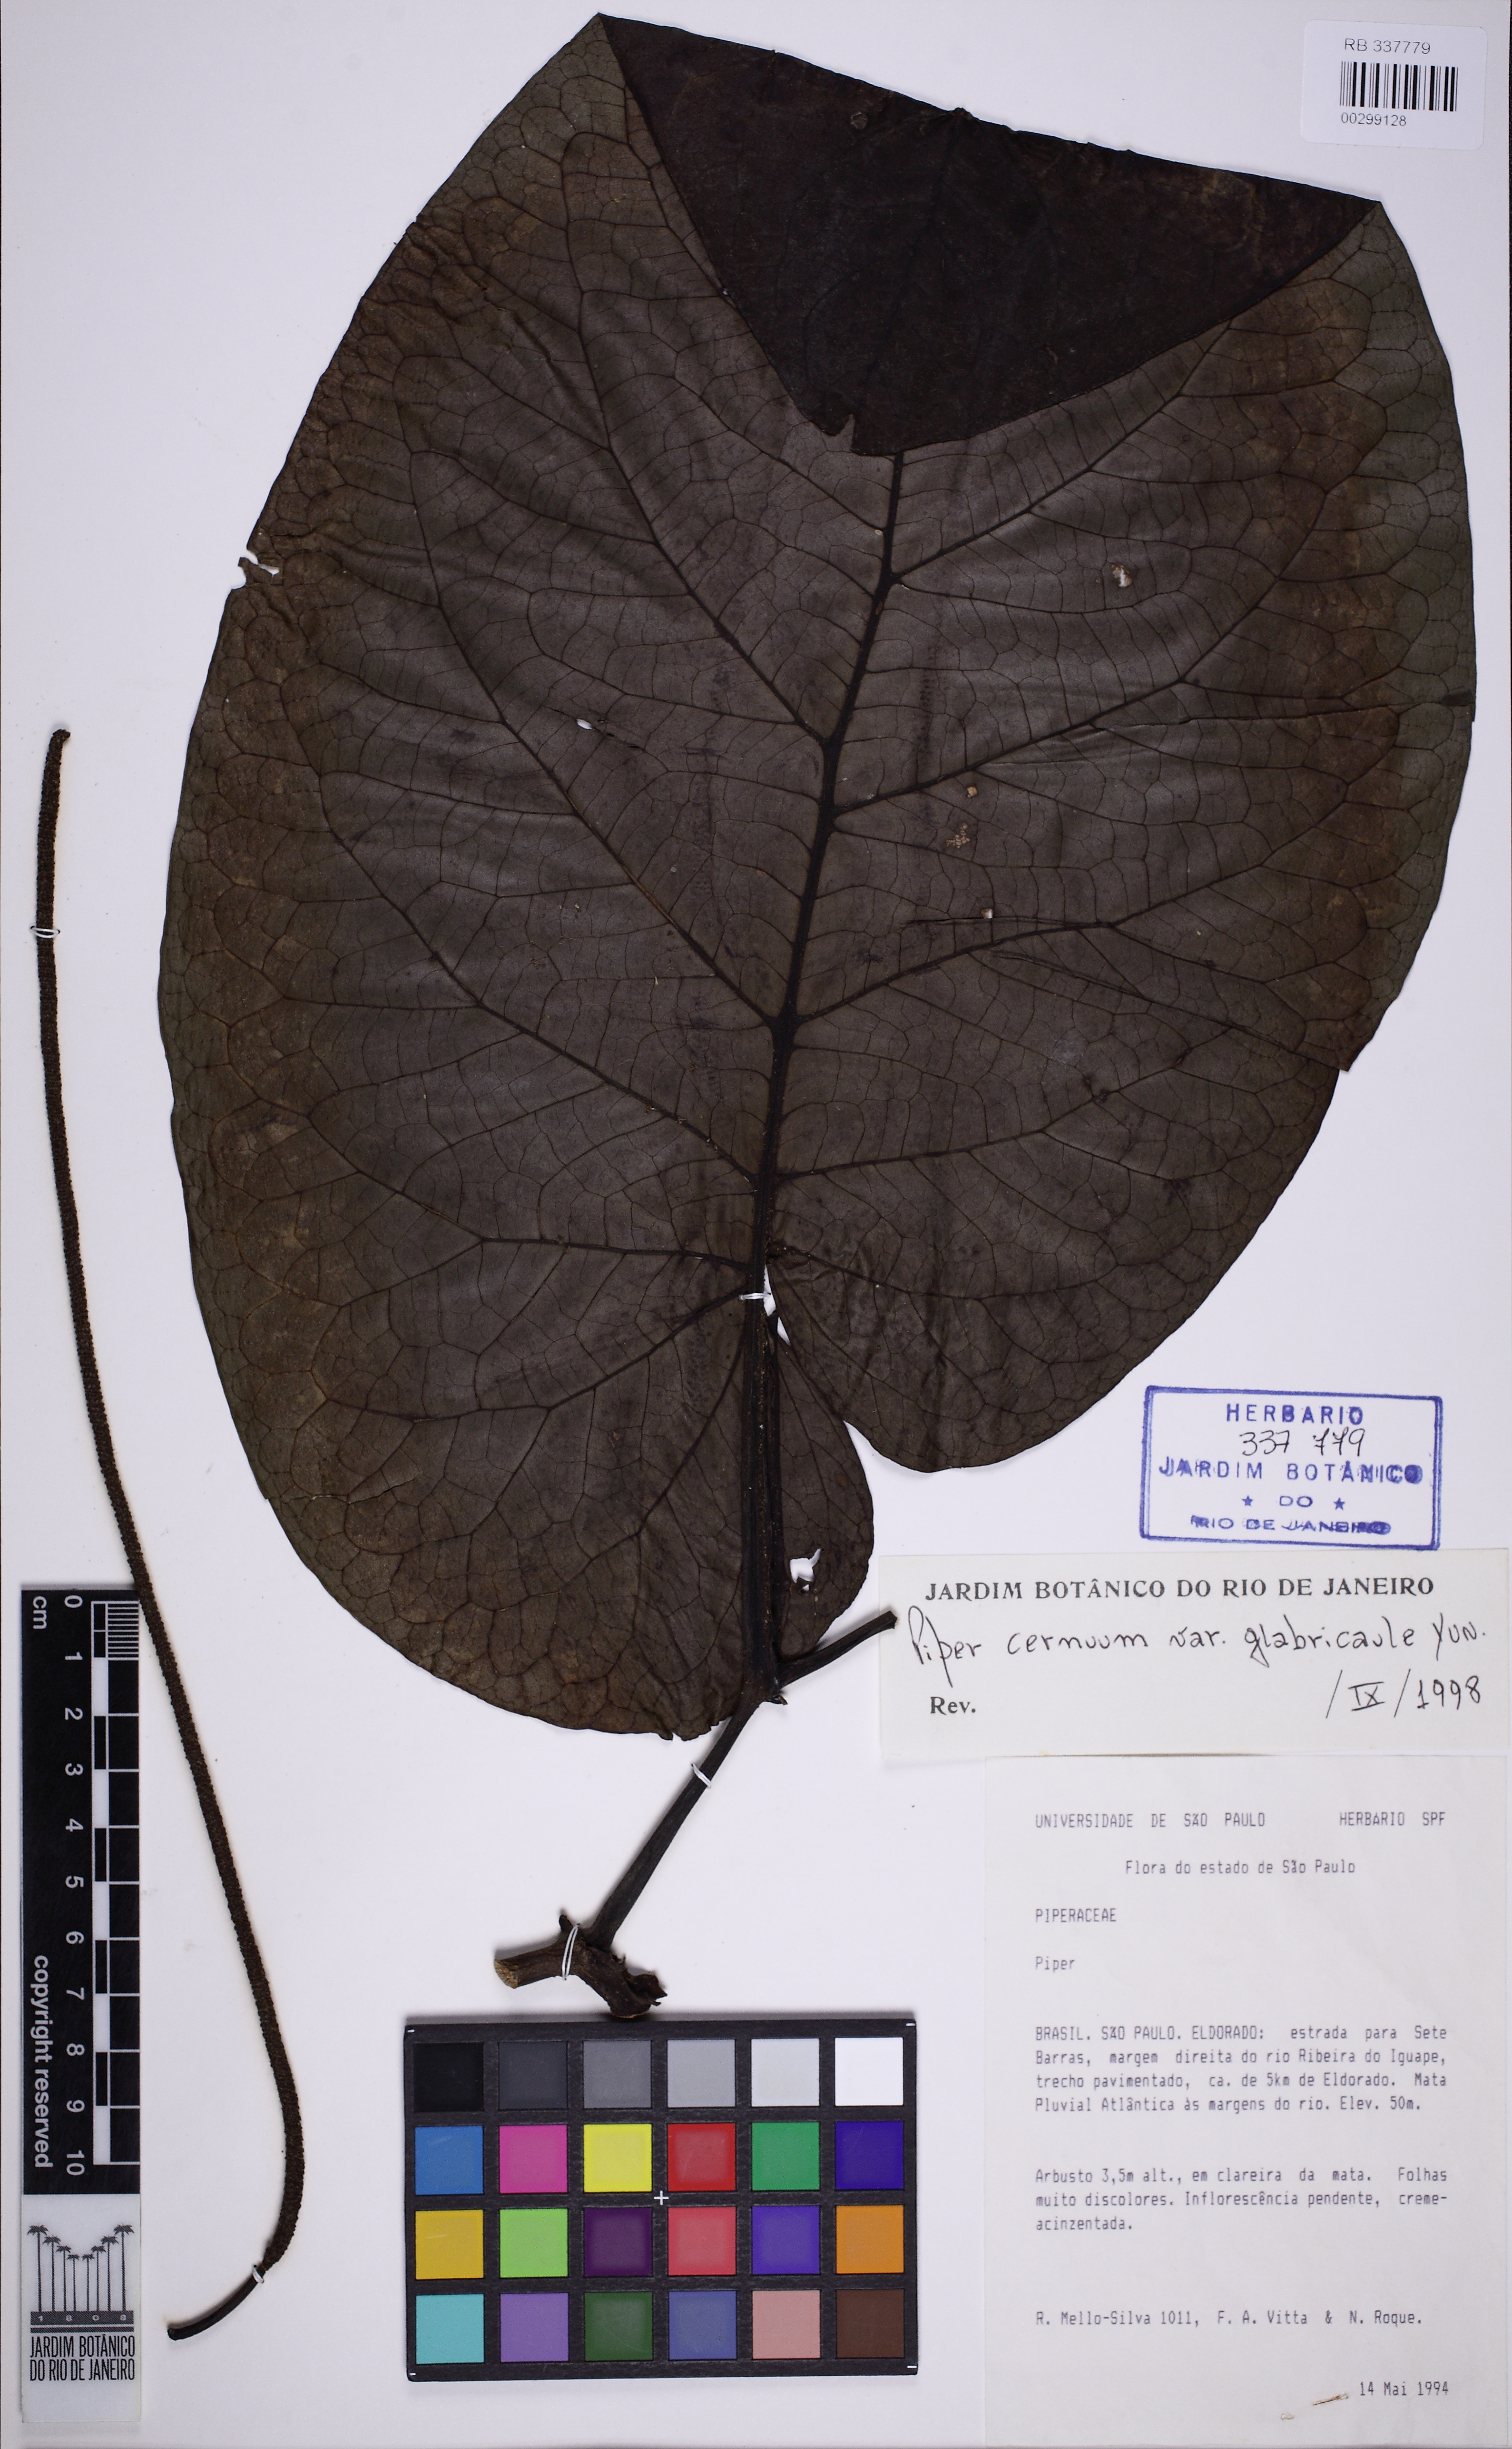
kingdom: Plantae
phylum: Tracheophyta
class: Magnoliopsida
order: Piperales
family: Piperaceae
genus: Piper
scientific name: Piper cernuum
